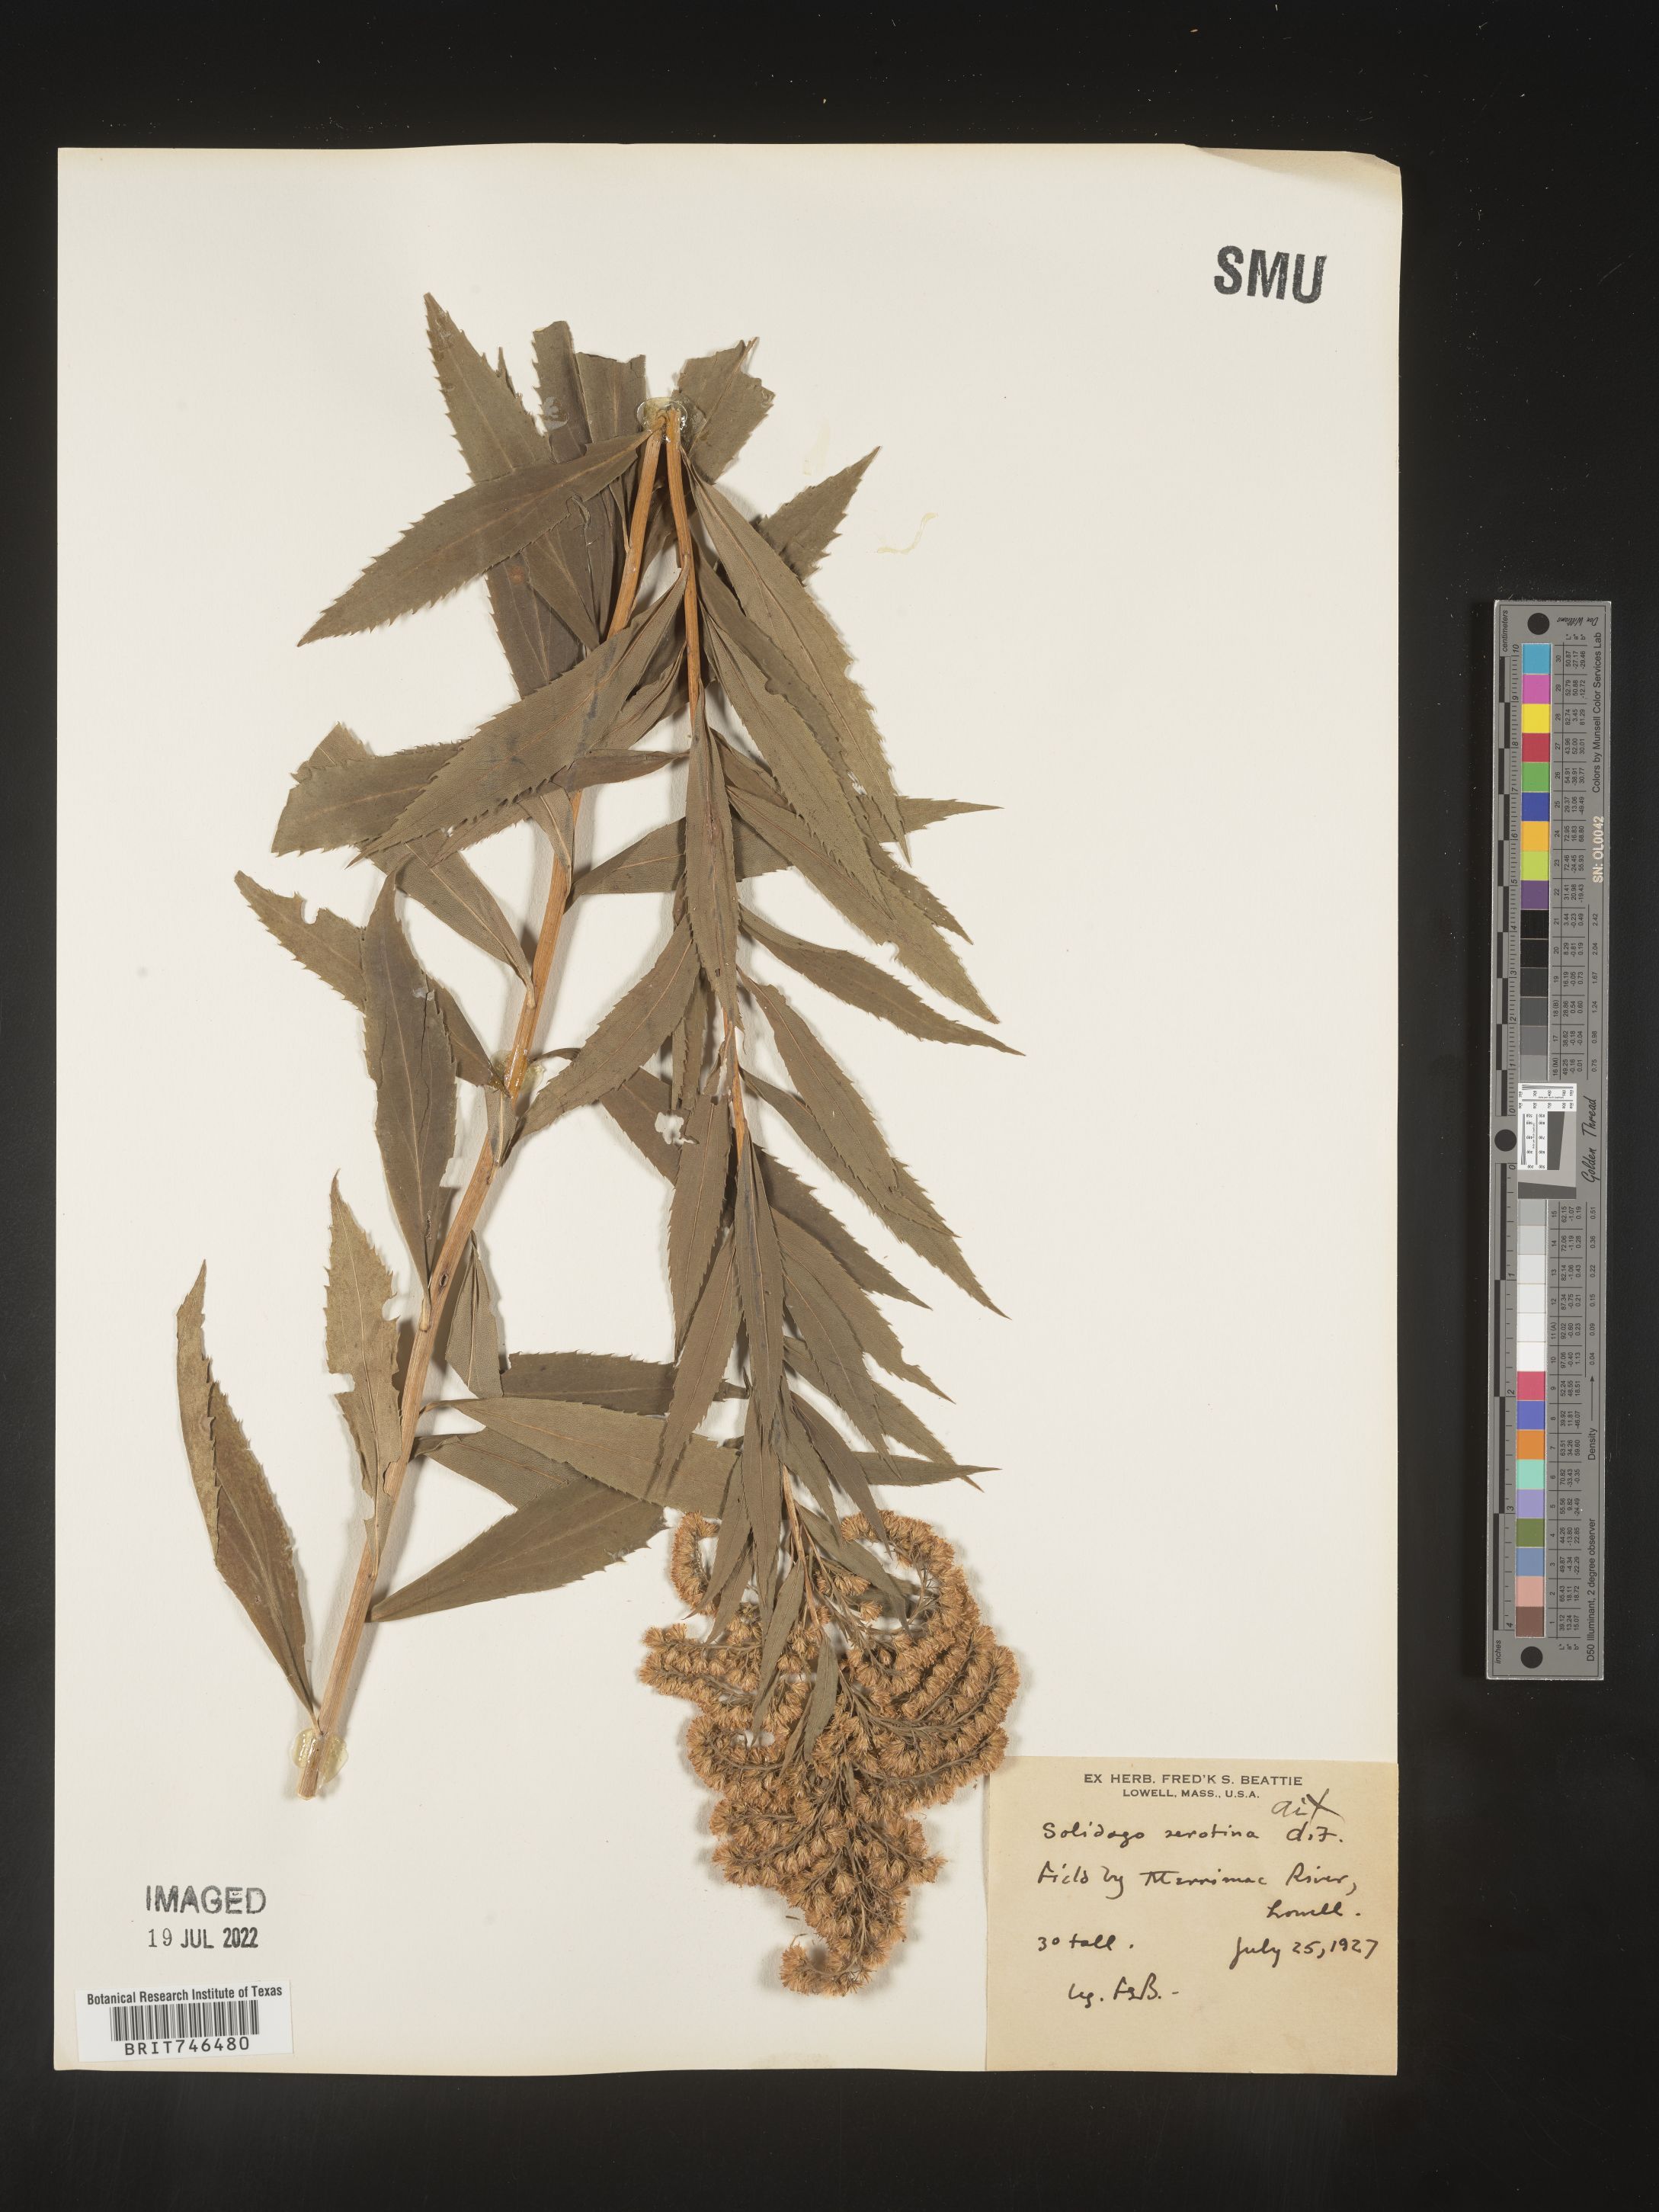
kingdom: Plantae
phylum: Tracheophyta
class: Magnoliopsida
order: Asterales
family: Asteraceae
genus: Solidago
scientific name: Solidago gigantea
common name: Giant goldenrod
